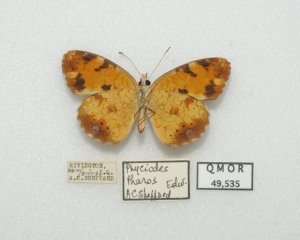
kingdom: Animalia
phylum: Arthropoda
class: Insecta
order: Lepidoptera
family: Nymphalidae
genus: Phyciodes
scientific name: Phyciodes tharos
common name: Northern Crescent
